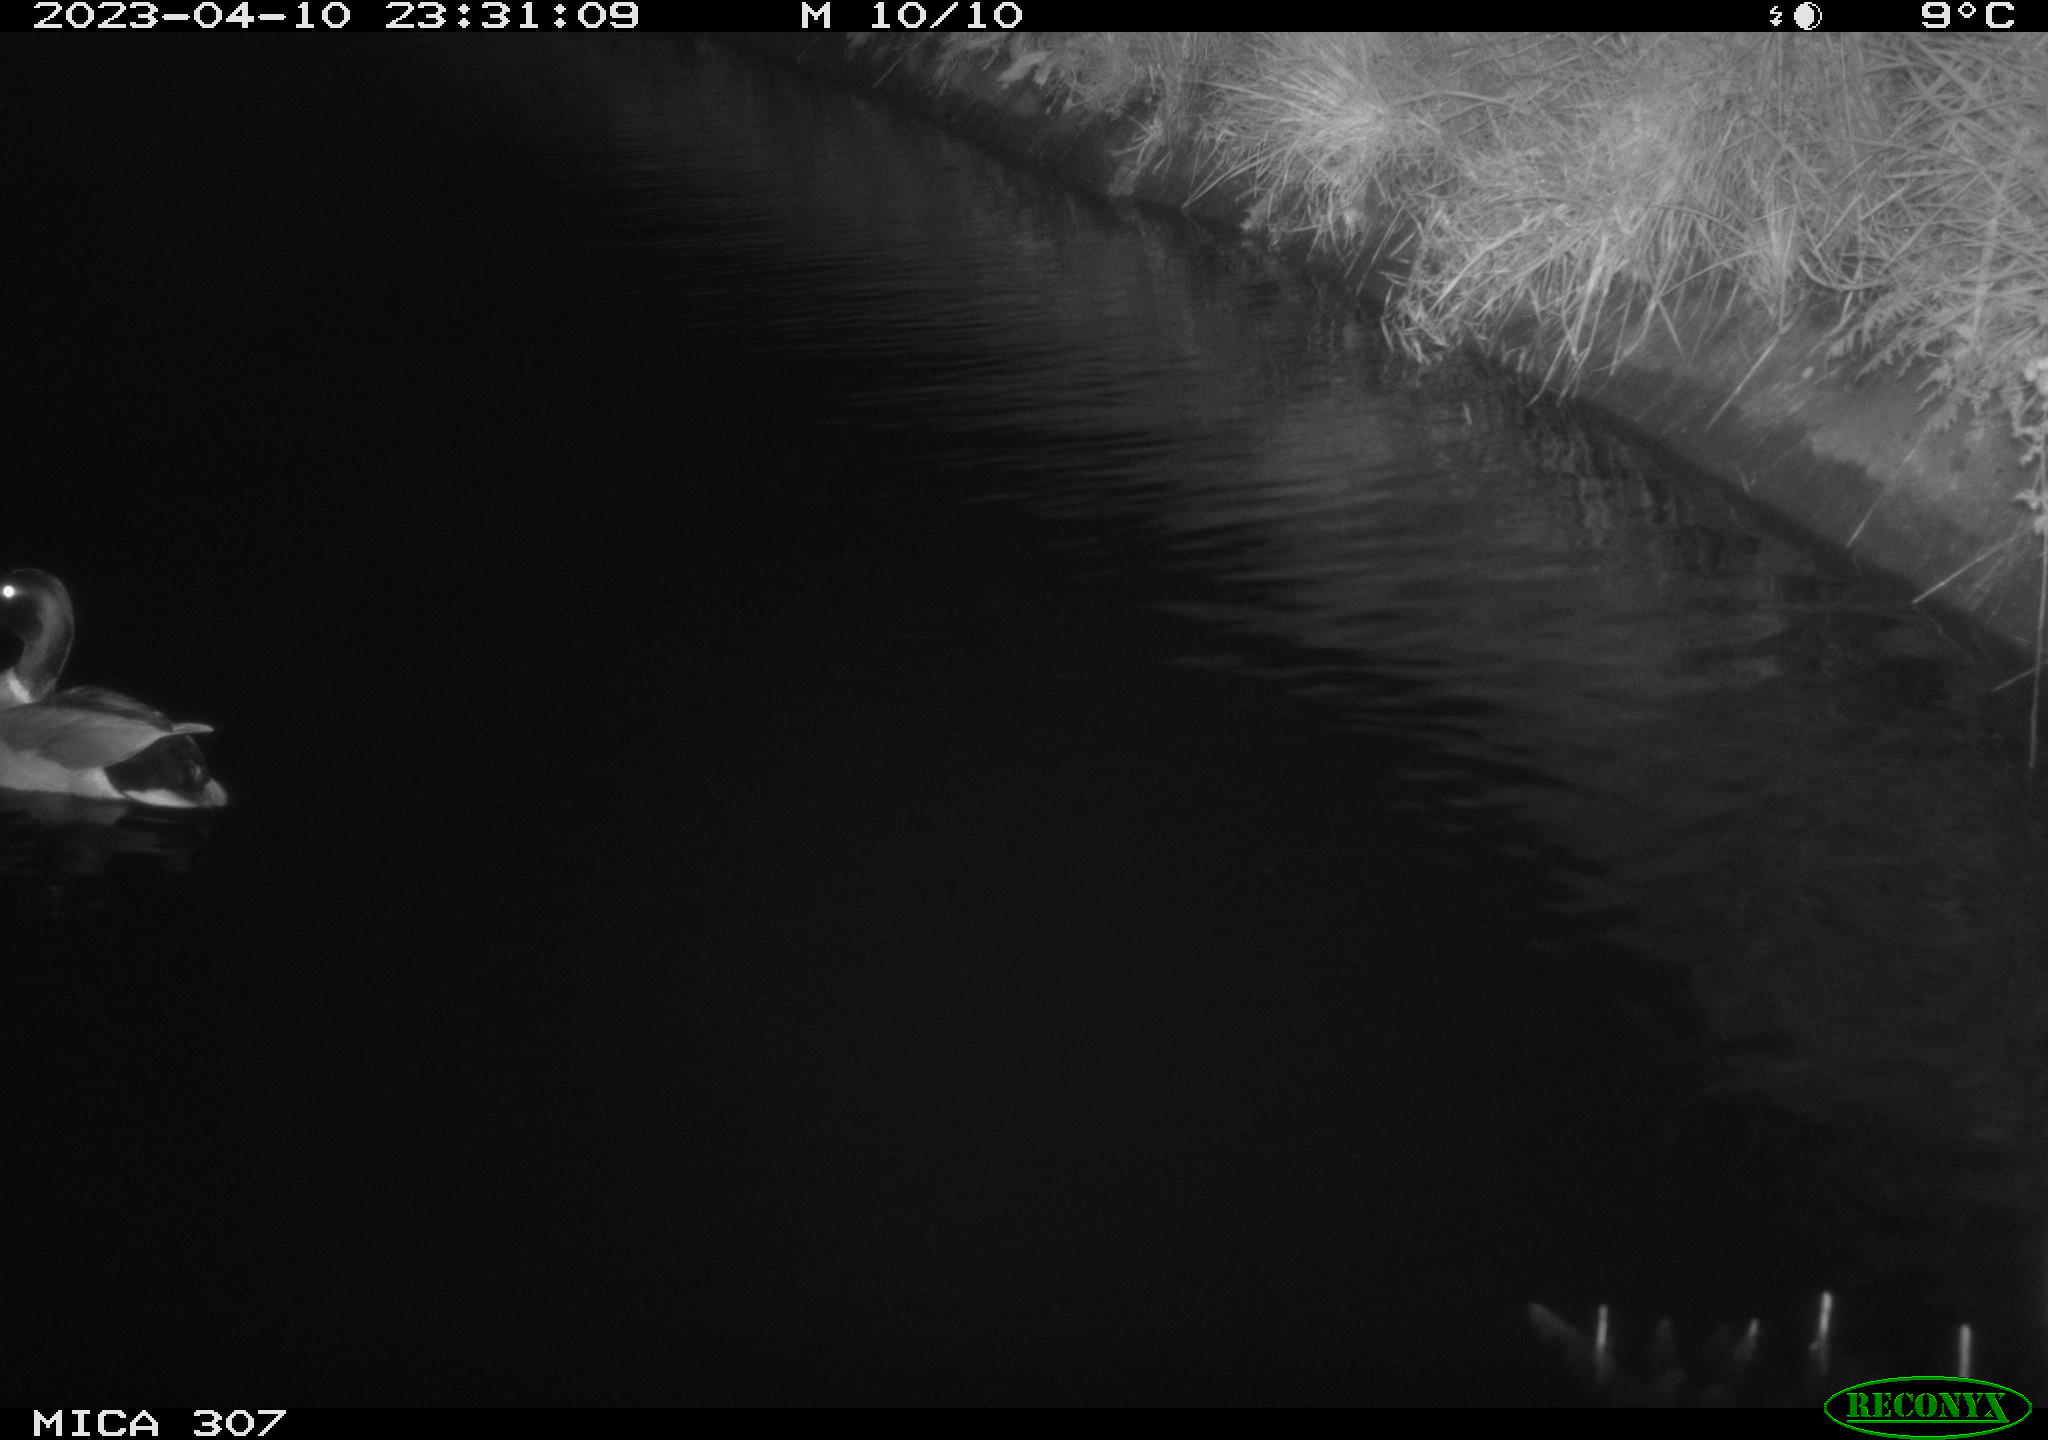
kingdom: Animalia
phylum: Chordata
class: Aves
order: Anseriformes
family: Anatidae
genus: Anas
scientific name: Anas
